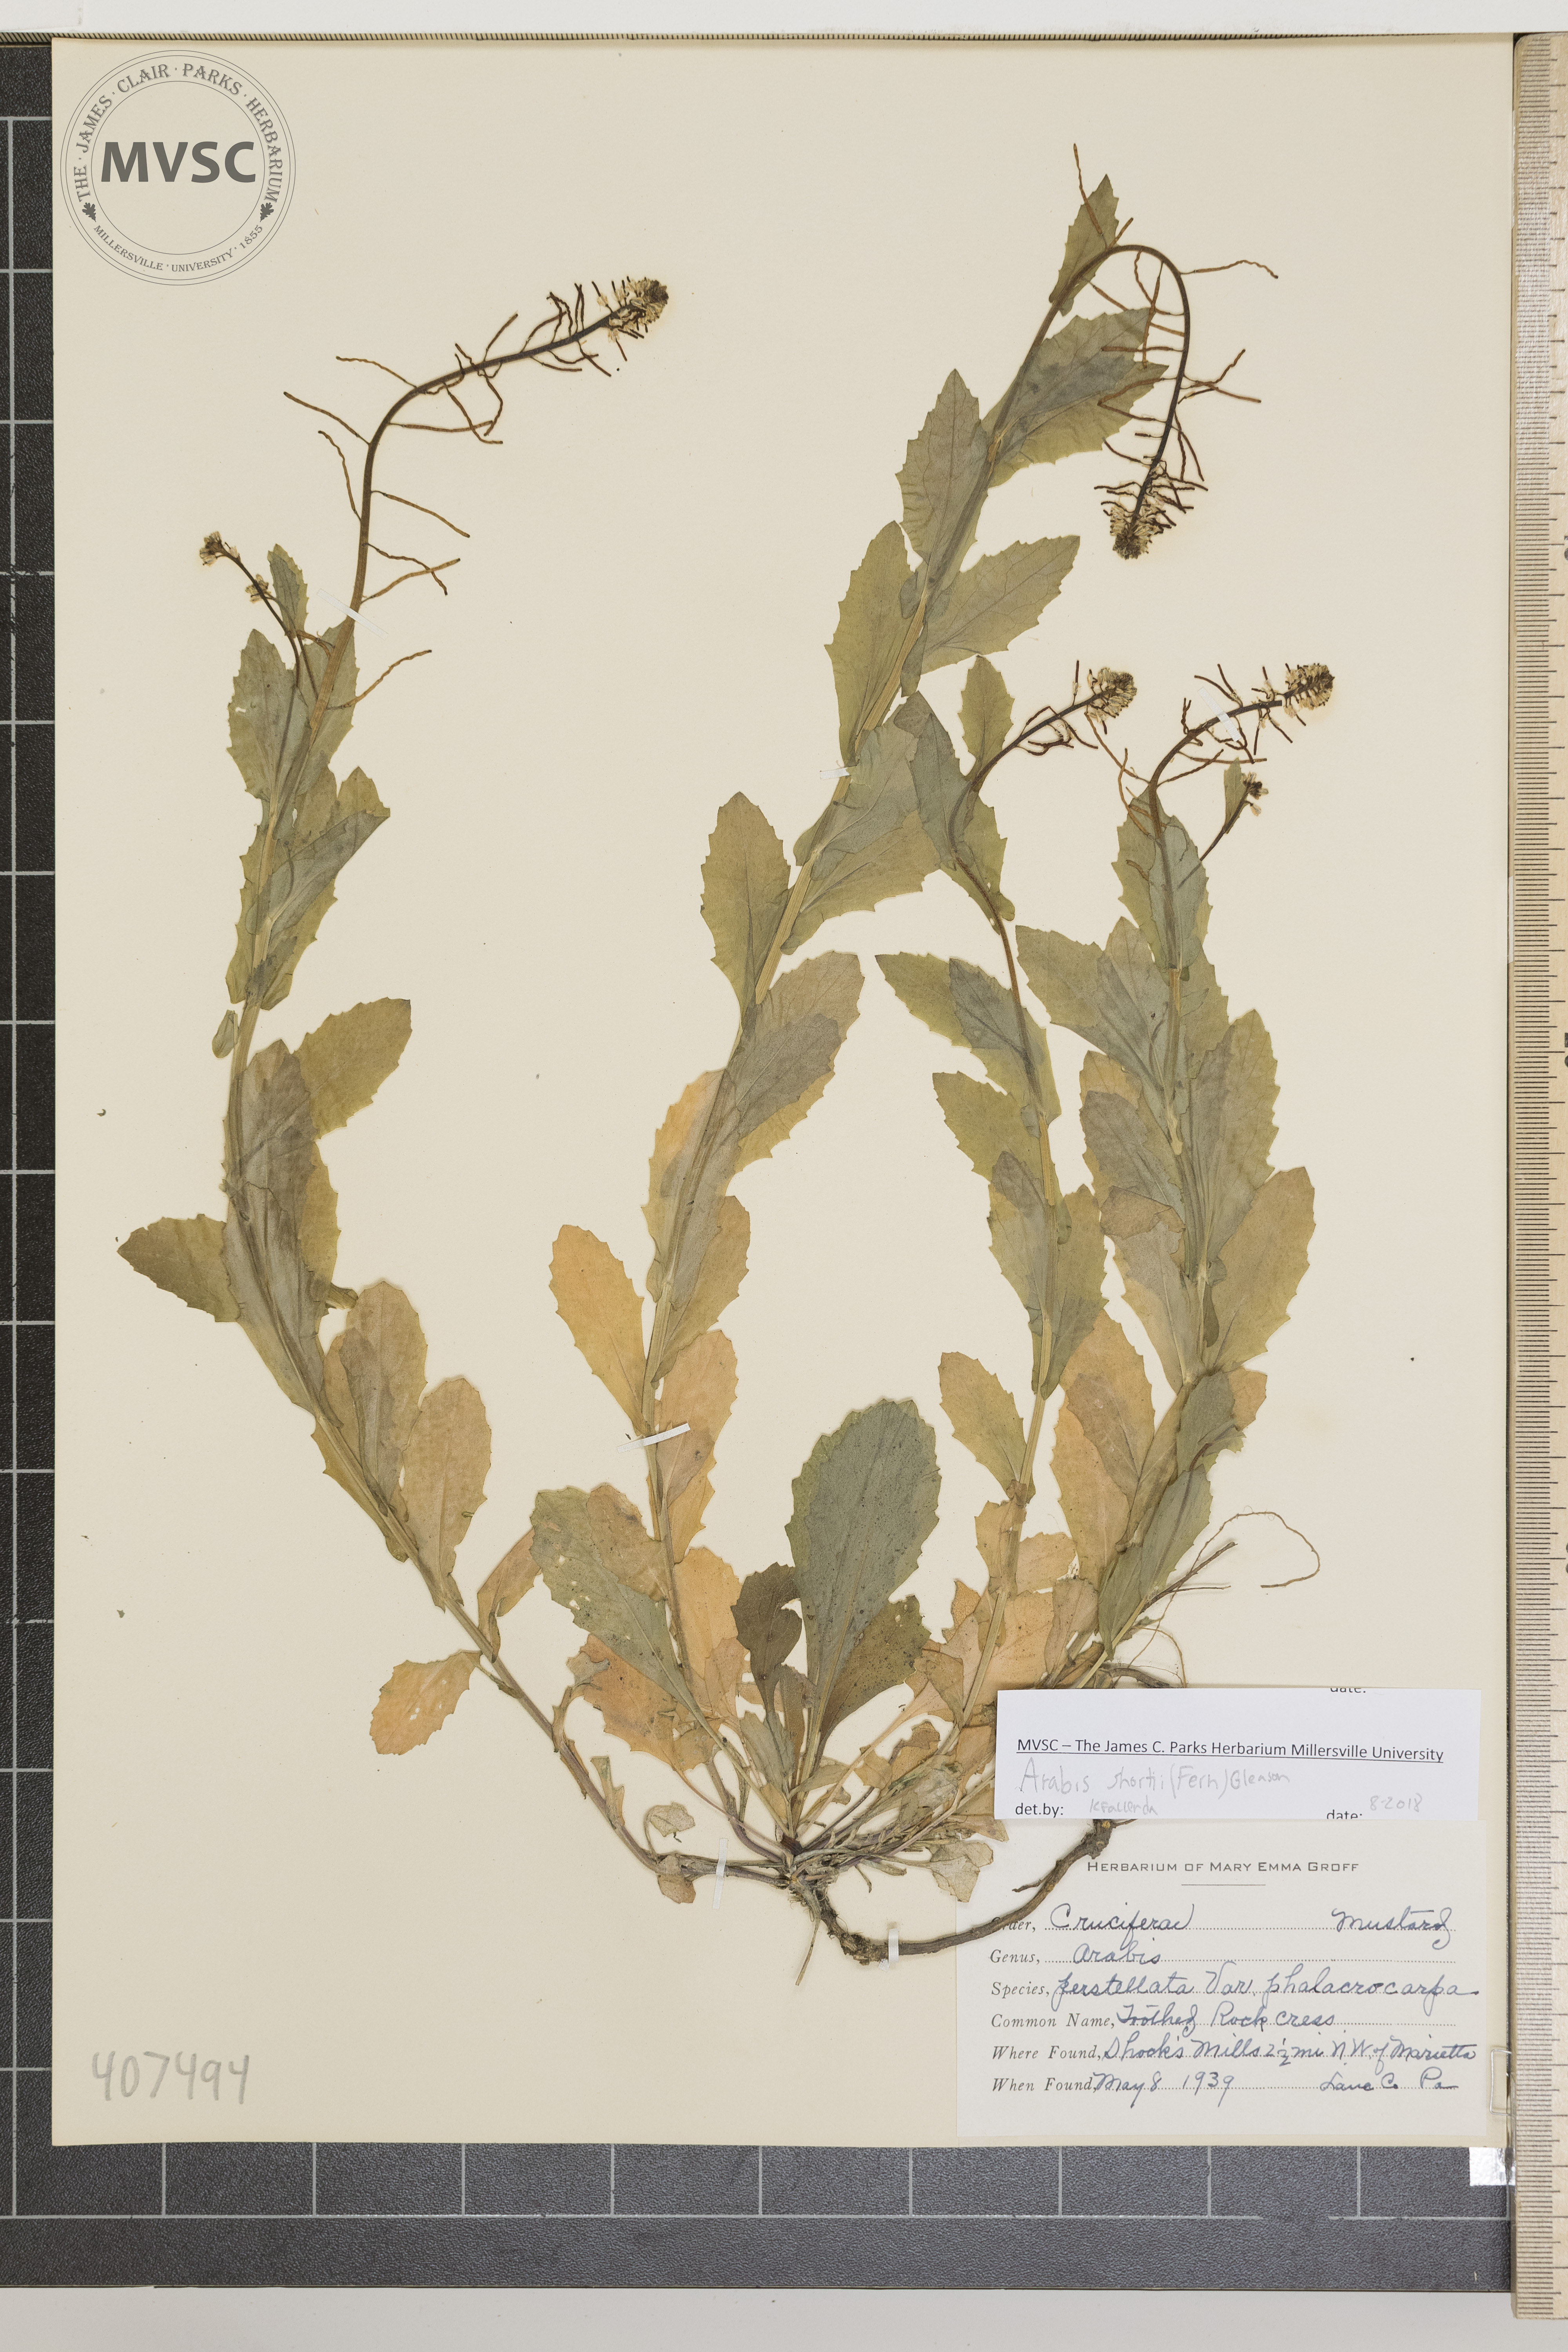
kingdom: Plantae
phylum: Tracheophyta
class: Magnoliopsida
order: Brassicales
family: Brassicaceae
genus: Borodinia
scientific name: Borodinia dentata
